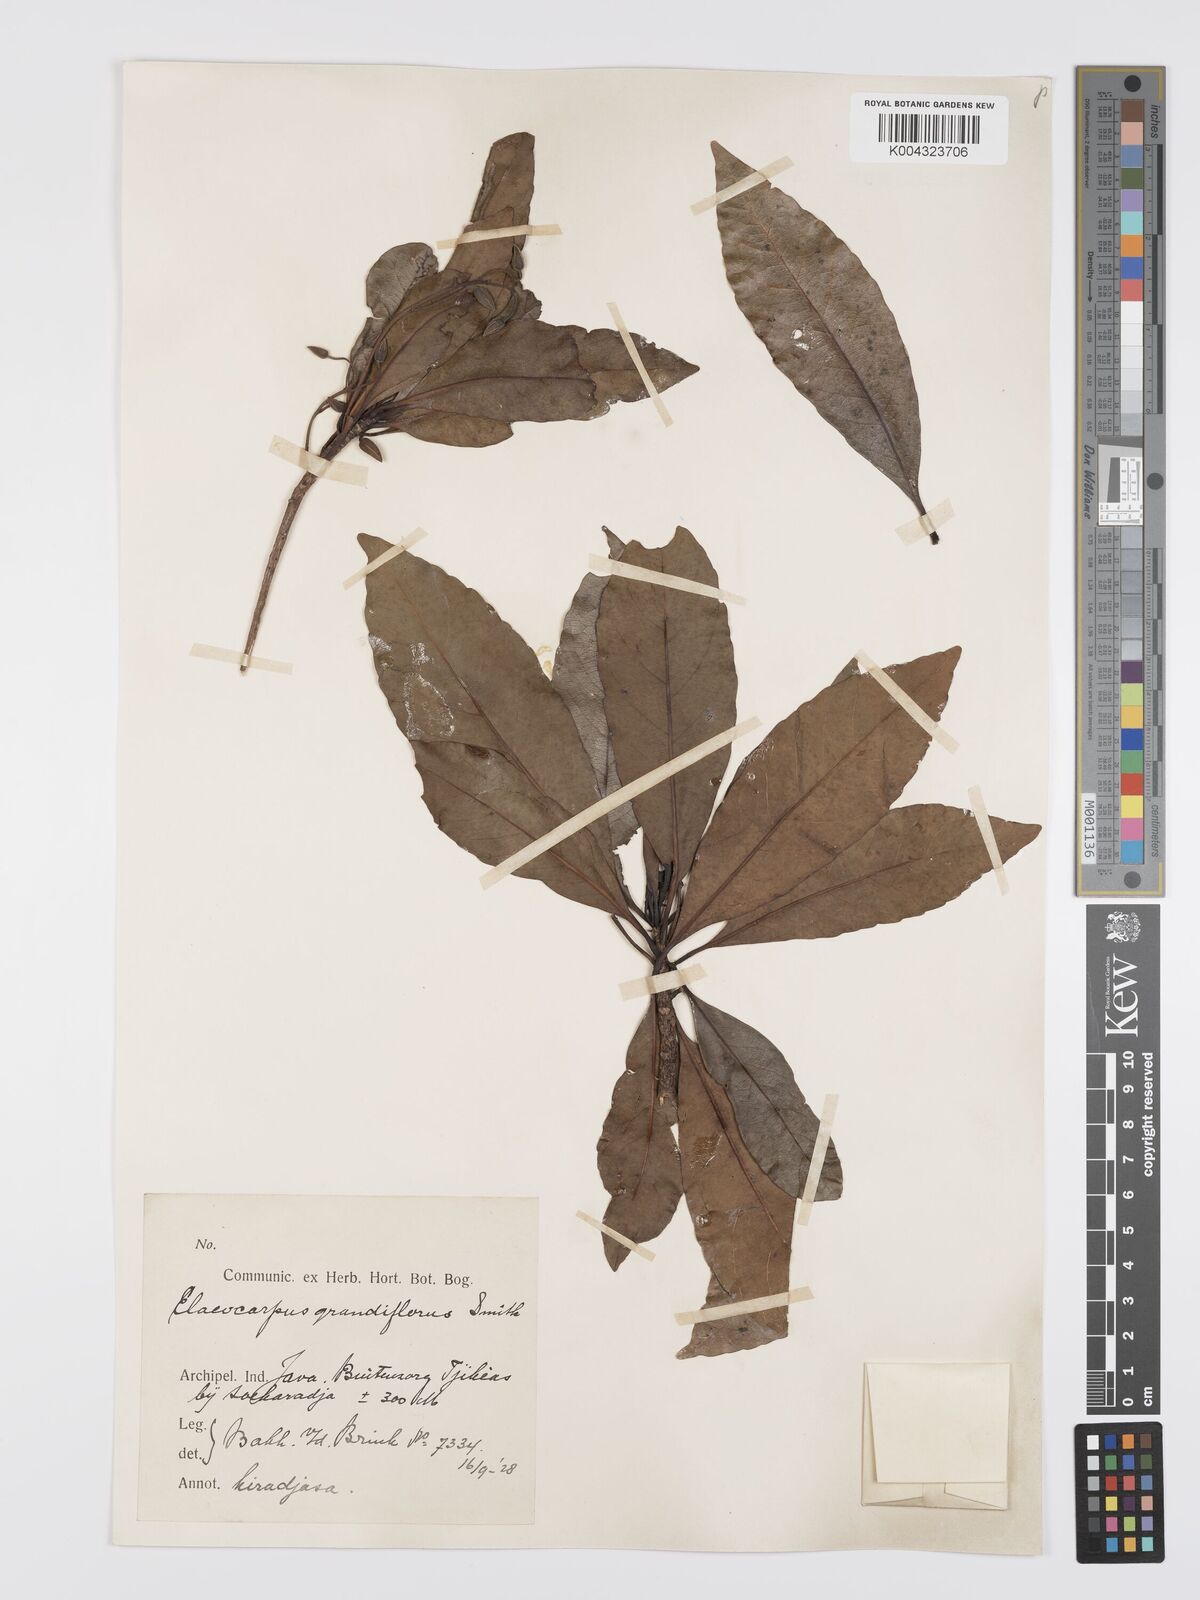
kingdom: Plantae
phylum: Tracheophyta
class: Magnoliopsida
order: Oxalidales
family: Elaeocarpaceae
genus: Elaeocarpus
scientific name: Elaeocarpus grandiflorus
